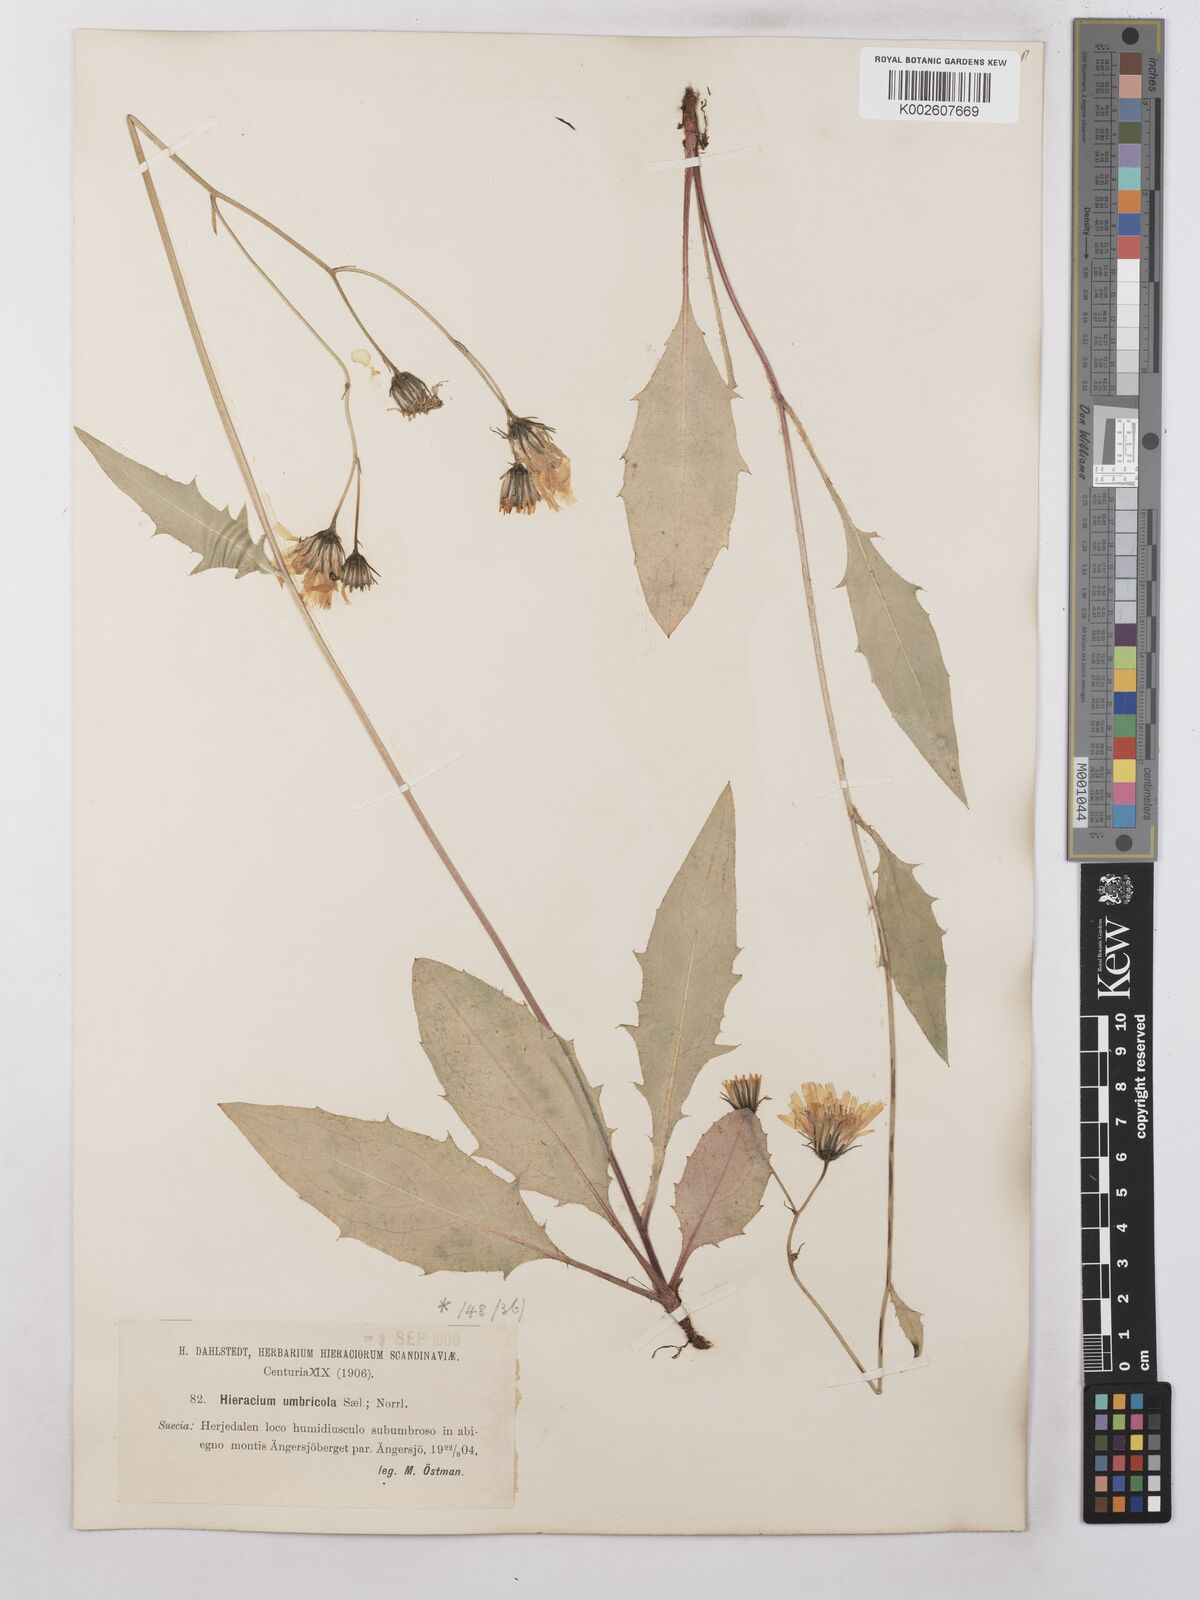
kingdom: Plantae
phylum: Tracheophyta
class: Magnoliopsida
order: Asterales
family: Asteraceae
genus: Hieracium
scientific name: Hieracium subramosum
